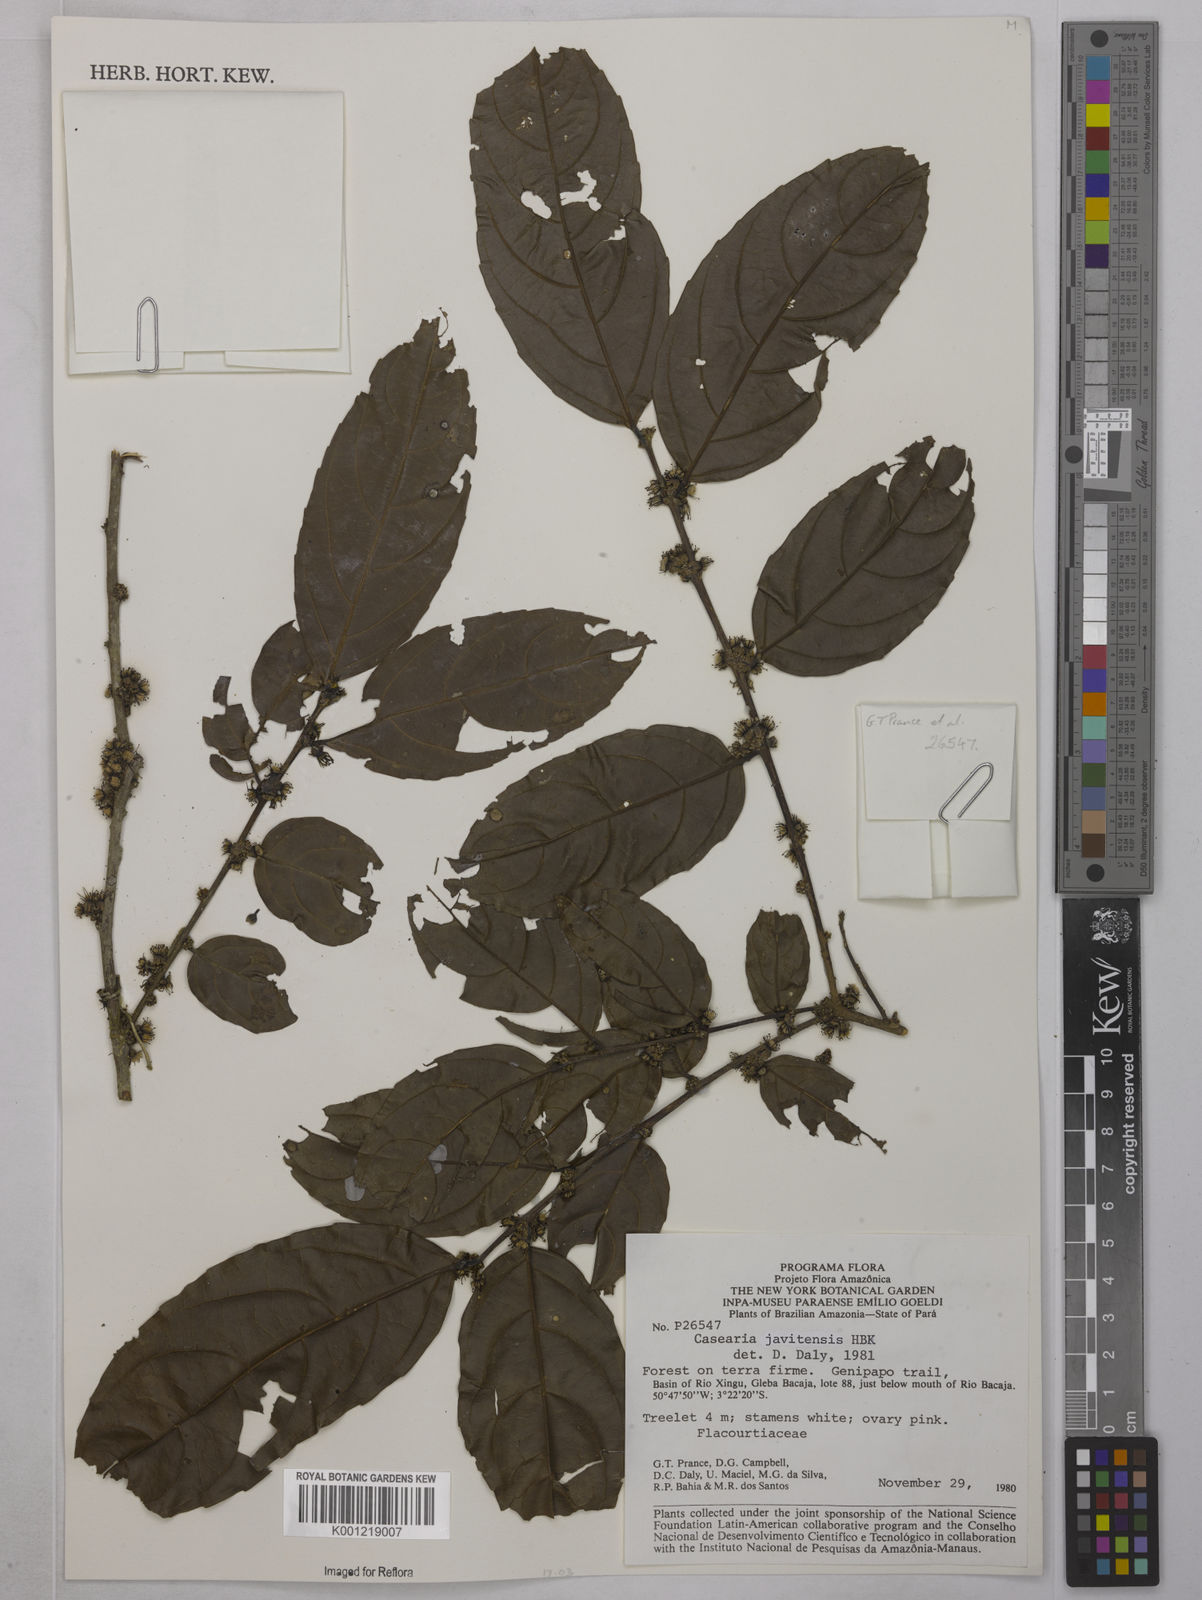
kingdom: Plantae
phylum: Tracheophyta
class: Magnoliopsida
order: Malpighiales
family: Salicaceae
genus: Piparea
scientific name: Piparea multiflora
